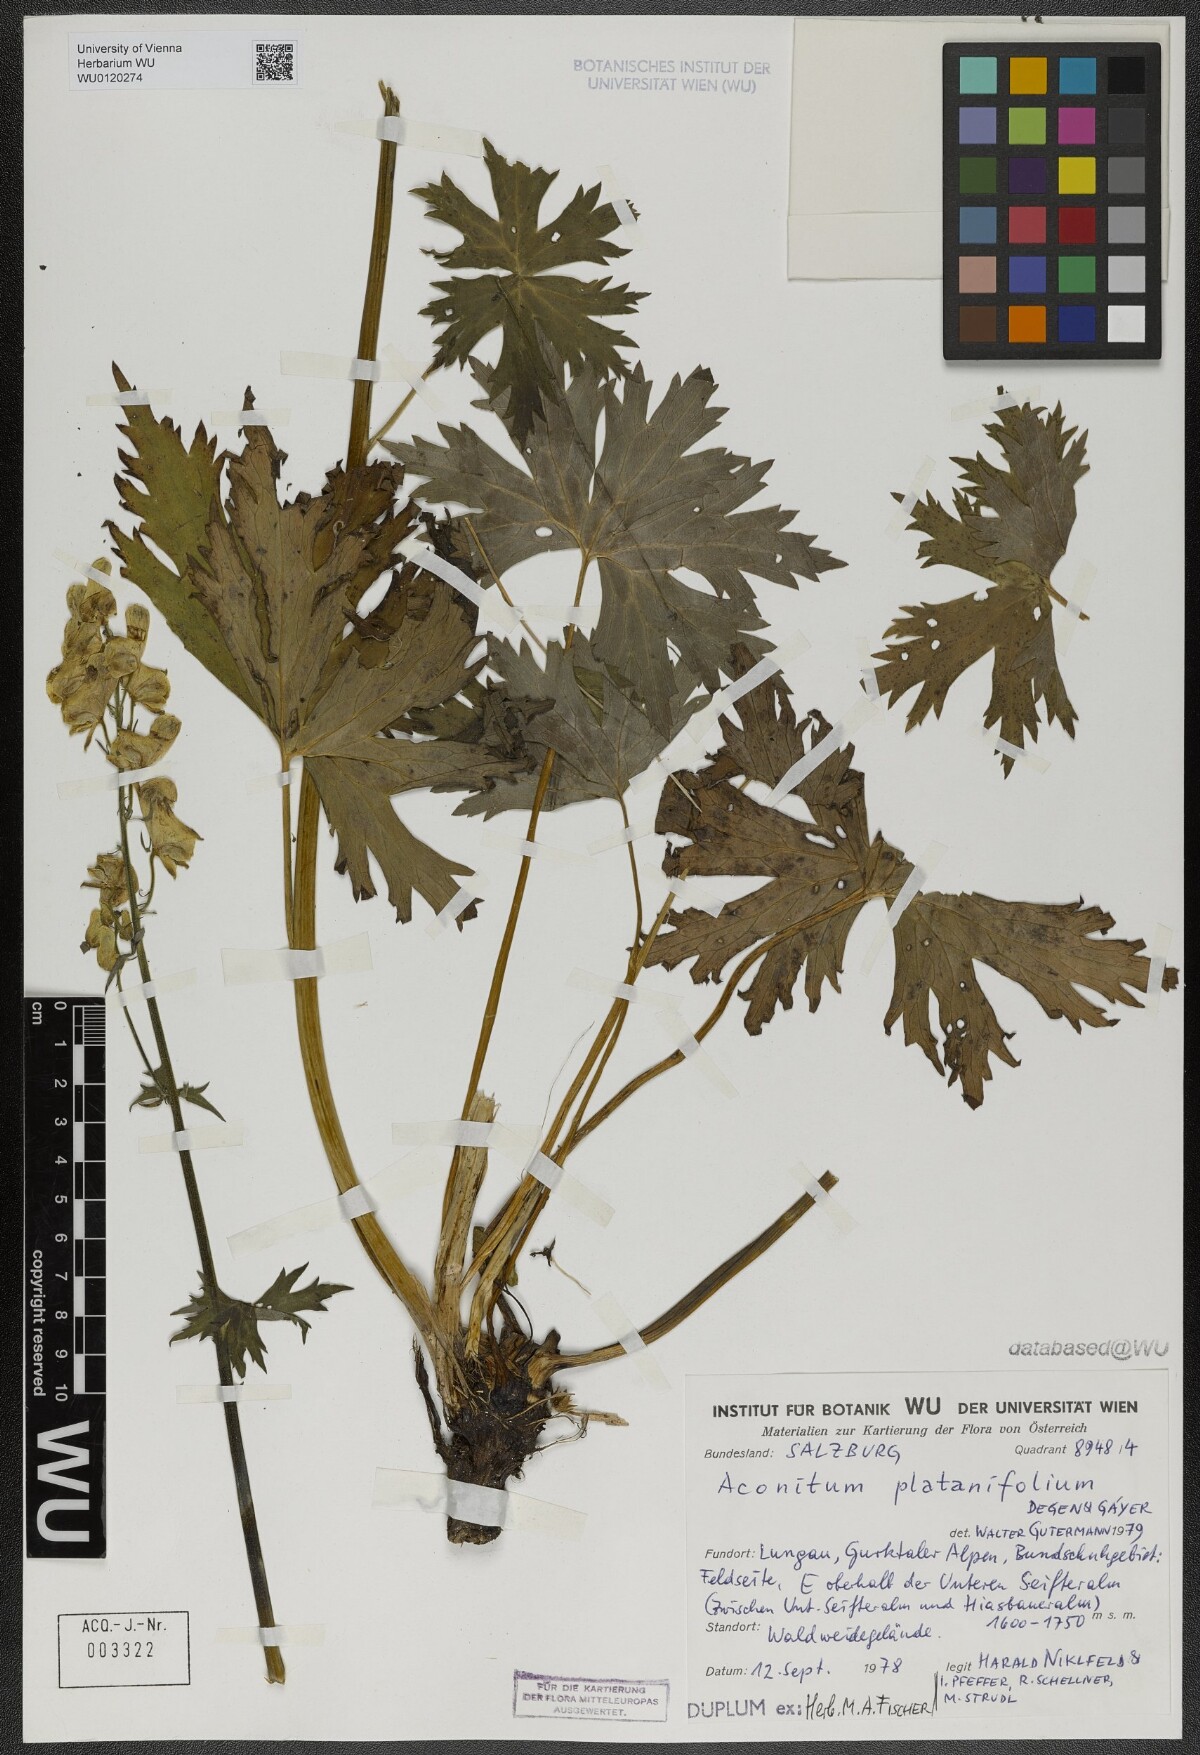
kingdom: Plantae
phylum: Tracheophyta
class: Magnoliopsida
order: Ranunculales
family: Ranunculaceae
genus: Aconitum
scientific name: Aconitum lycoctonum
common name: Wolf's-bane
